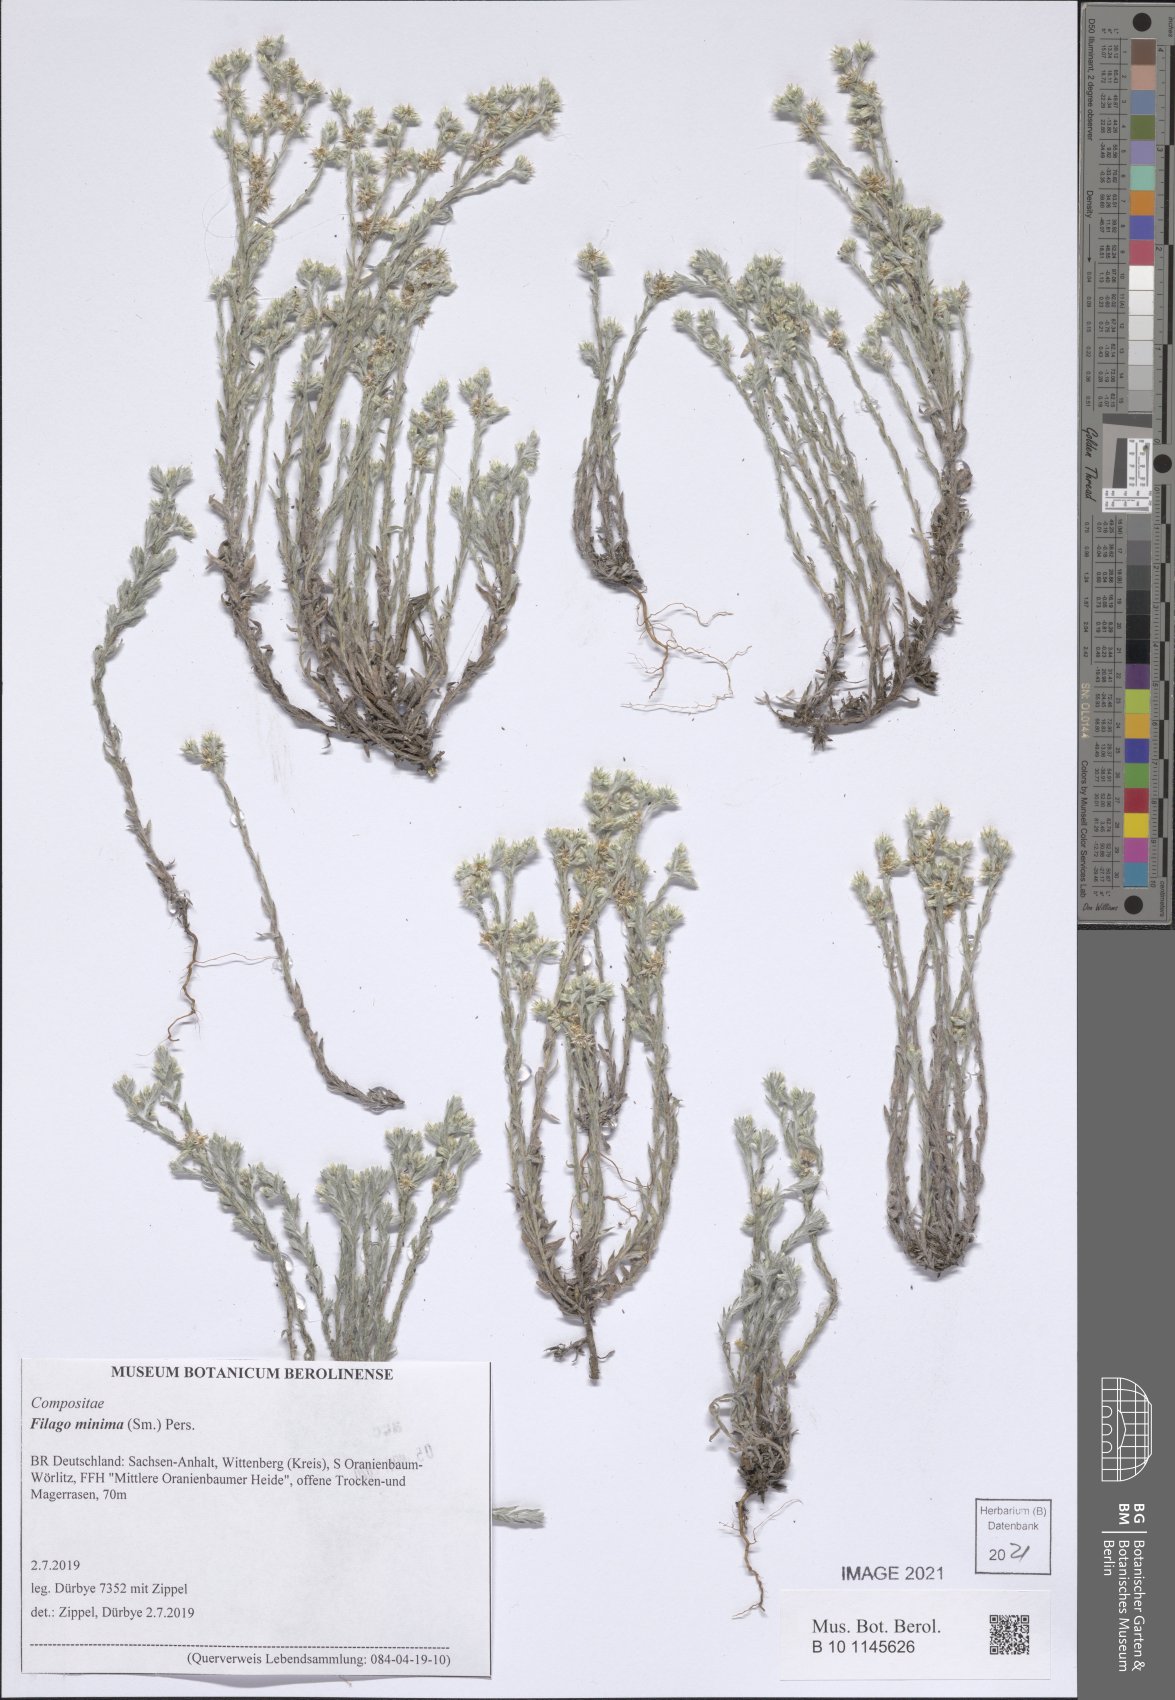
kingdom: Plantae
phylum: Tracheophyta
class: Magnoliopsida
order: Asterales
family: Asteraceae
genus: Logfia
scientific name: Logfia minima
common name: Little cottonrose
